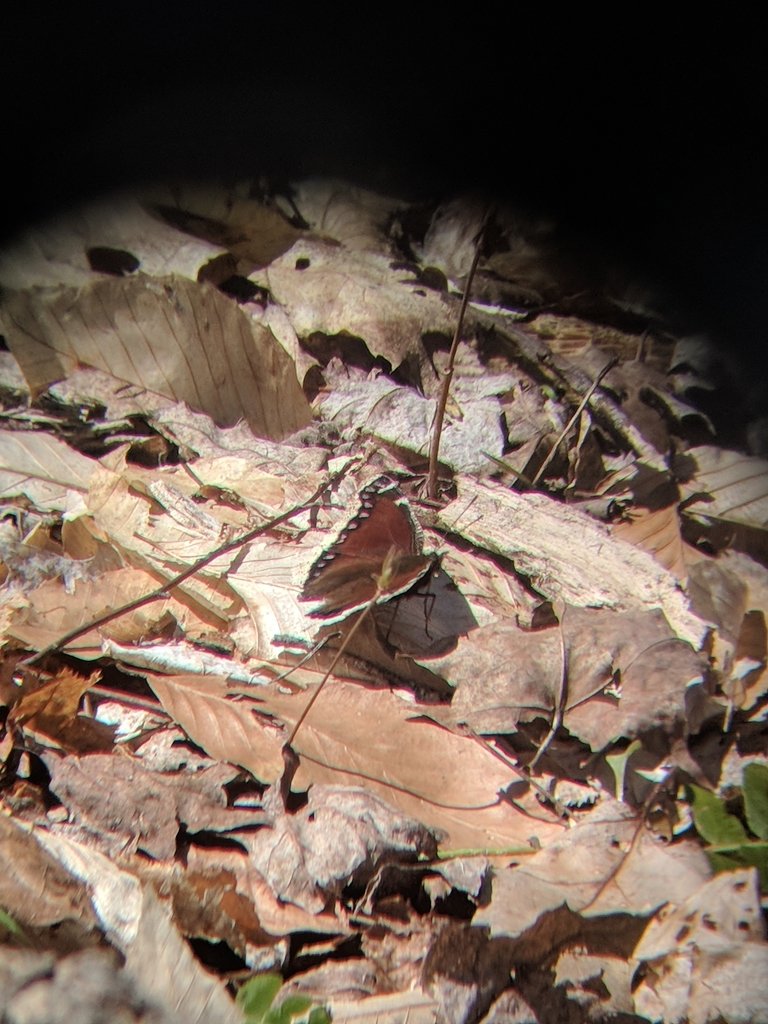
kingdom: Animalia
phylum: Arthropoda
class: Insecta
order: Lepidoptera
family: Nymphalidae
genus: Nymphalis
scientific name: Nymphalis antiopa
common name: Mourning Cloak
